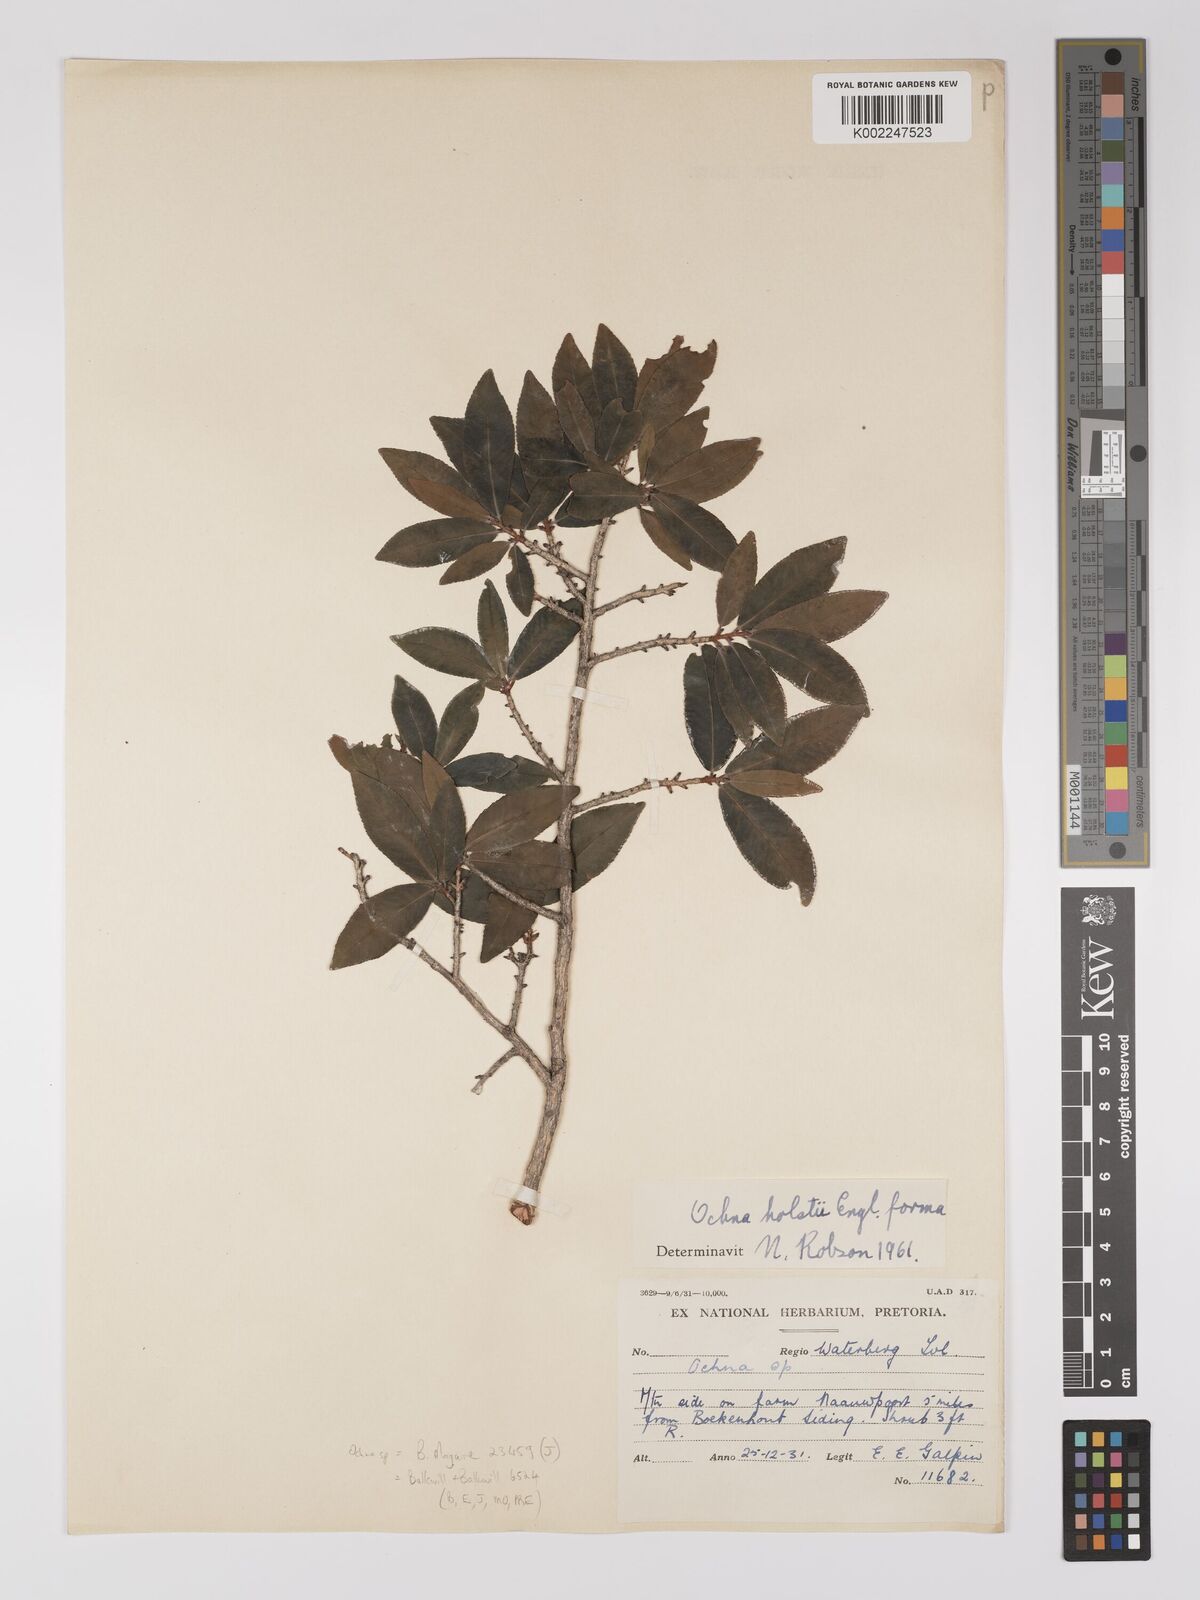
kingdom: Plantae
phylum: Tracheophyta
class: Magnoliopsida
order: Malpighiales
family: Ochnaceae
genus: Ochna
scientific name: Ochna
